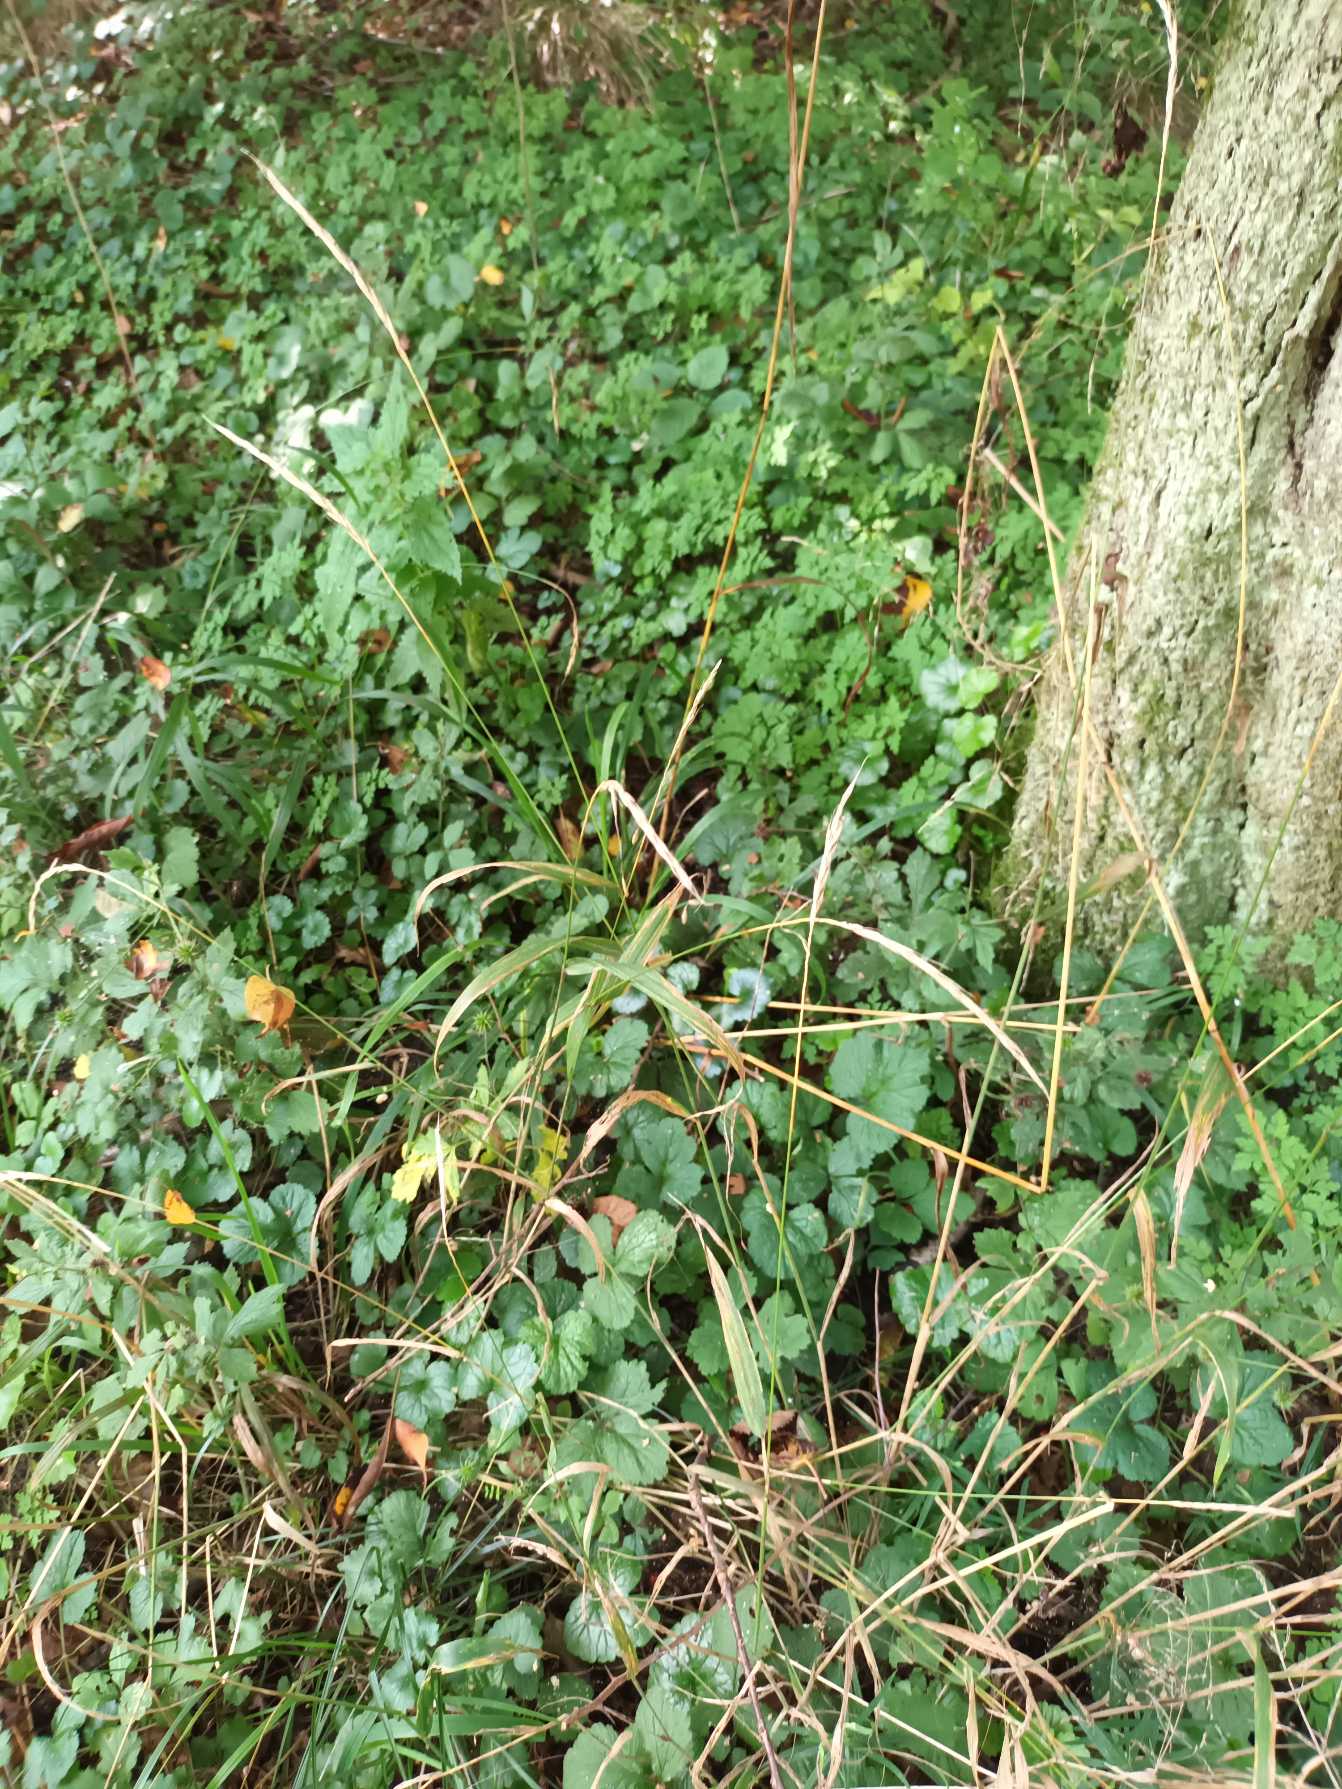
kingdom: Plantae
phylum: Tracheophyta
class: Liliopsida
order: Poales
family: Poaceae
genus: Brachypodium
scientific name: Brachypodium sylvaticum
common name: Skov-stilkaks
